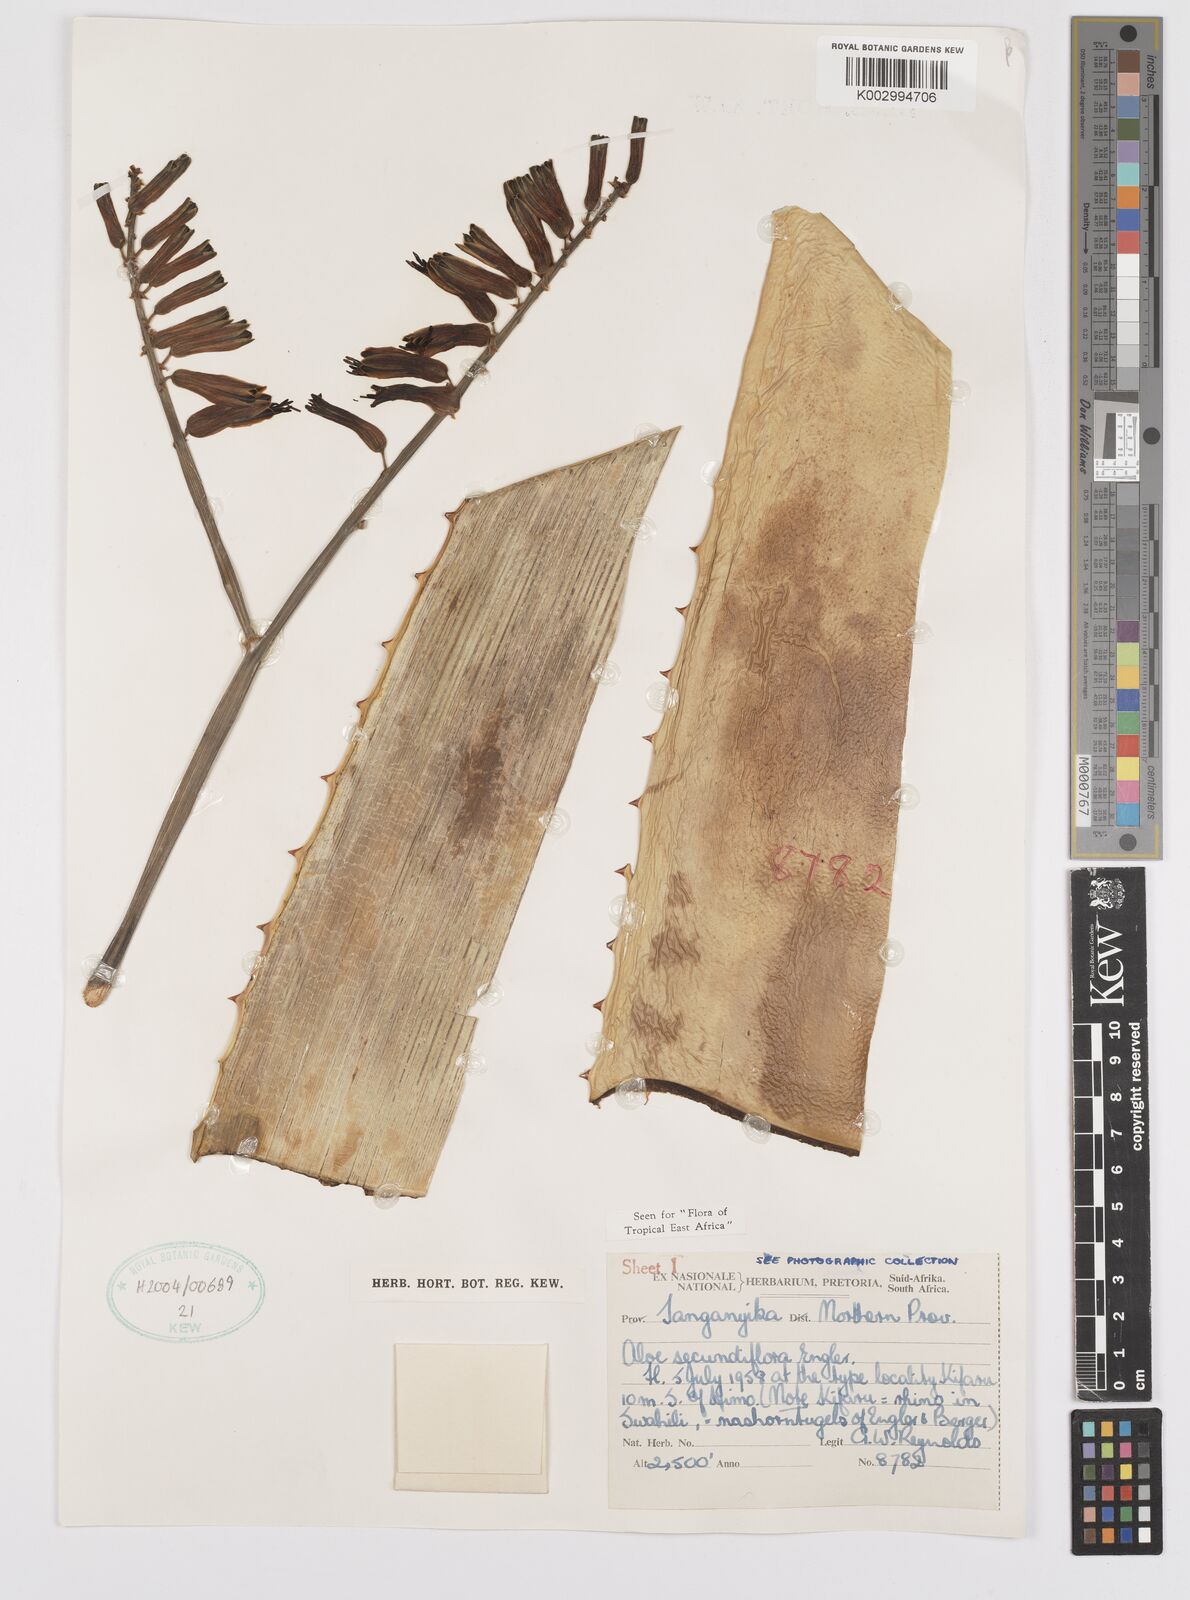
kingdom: Plantae
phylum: Tracheophyta
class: Liliopsida
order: Asparagales
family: Asphodelaceae
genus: Aloe
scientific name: Aloe secundiflora
